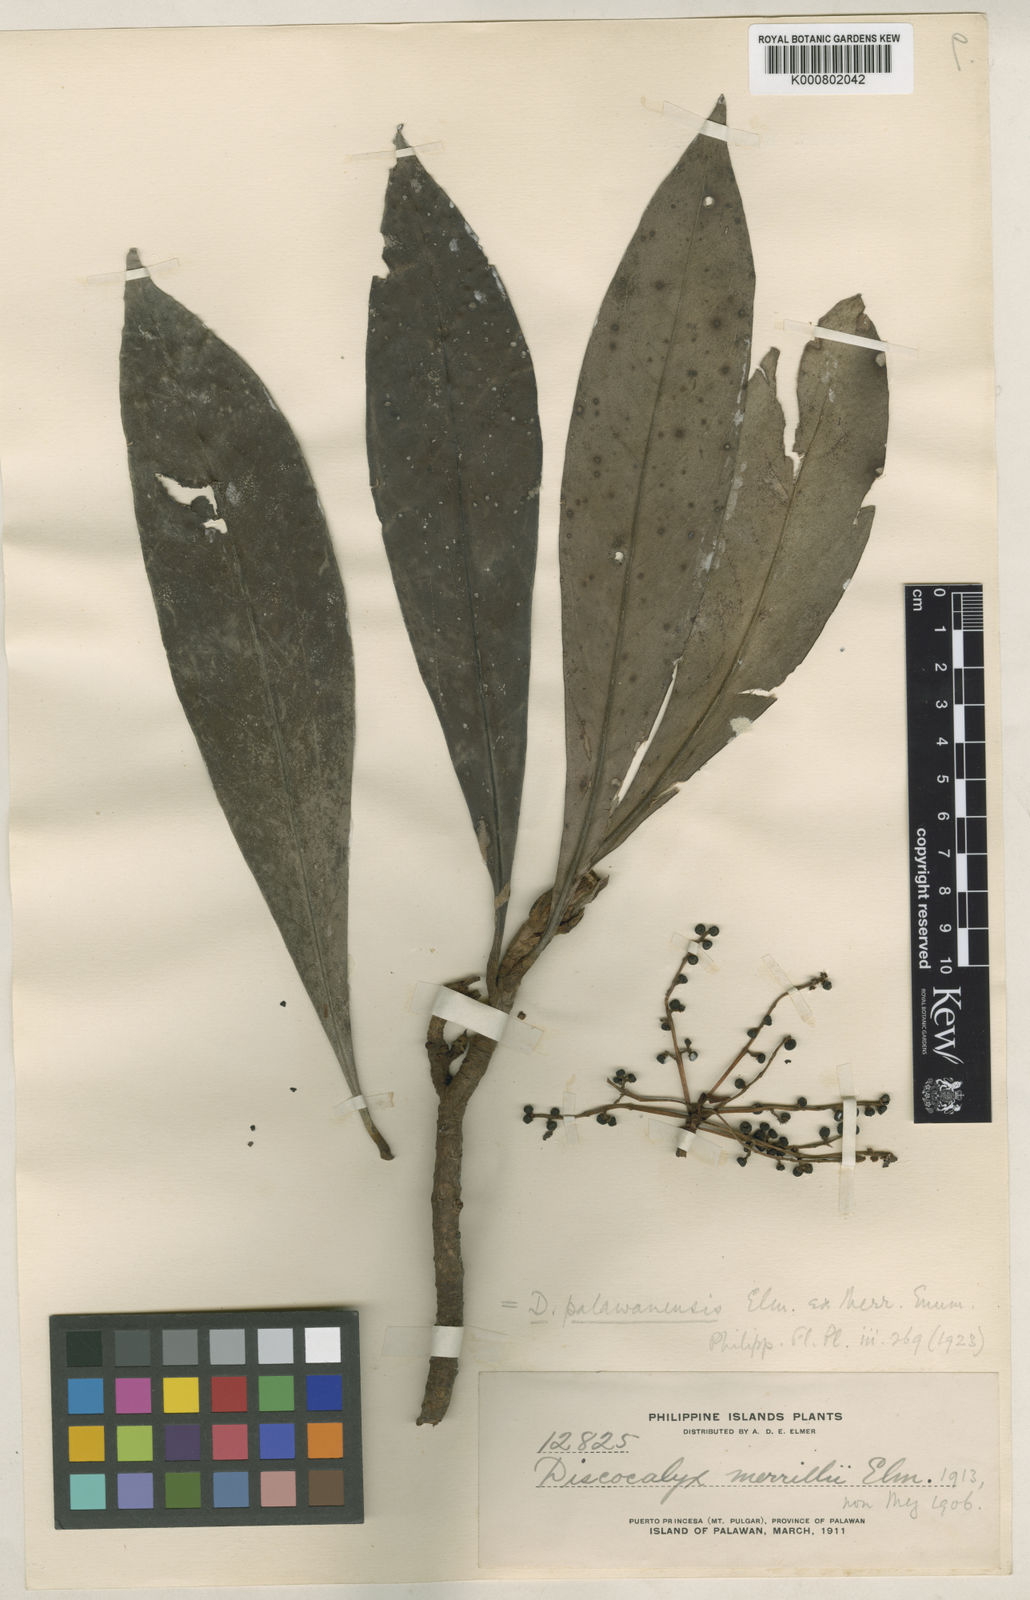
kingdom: Plantae
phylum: Tracheophyta
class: Magnoliopsida
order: Ericales
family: Primulaceae
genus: Discocalyx
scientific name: Discocalyx palawanensis
